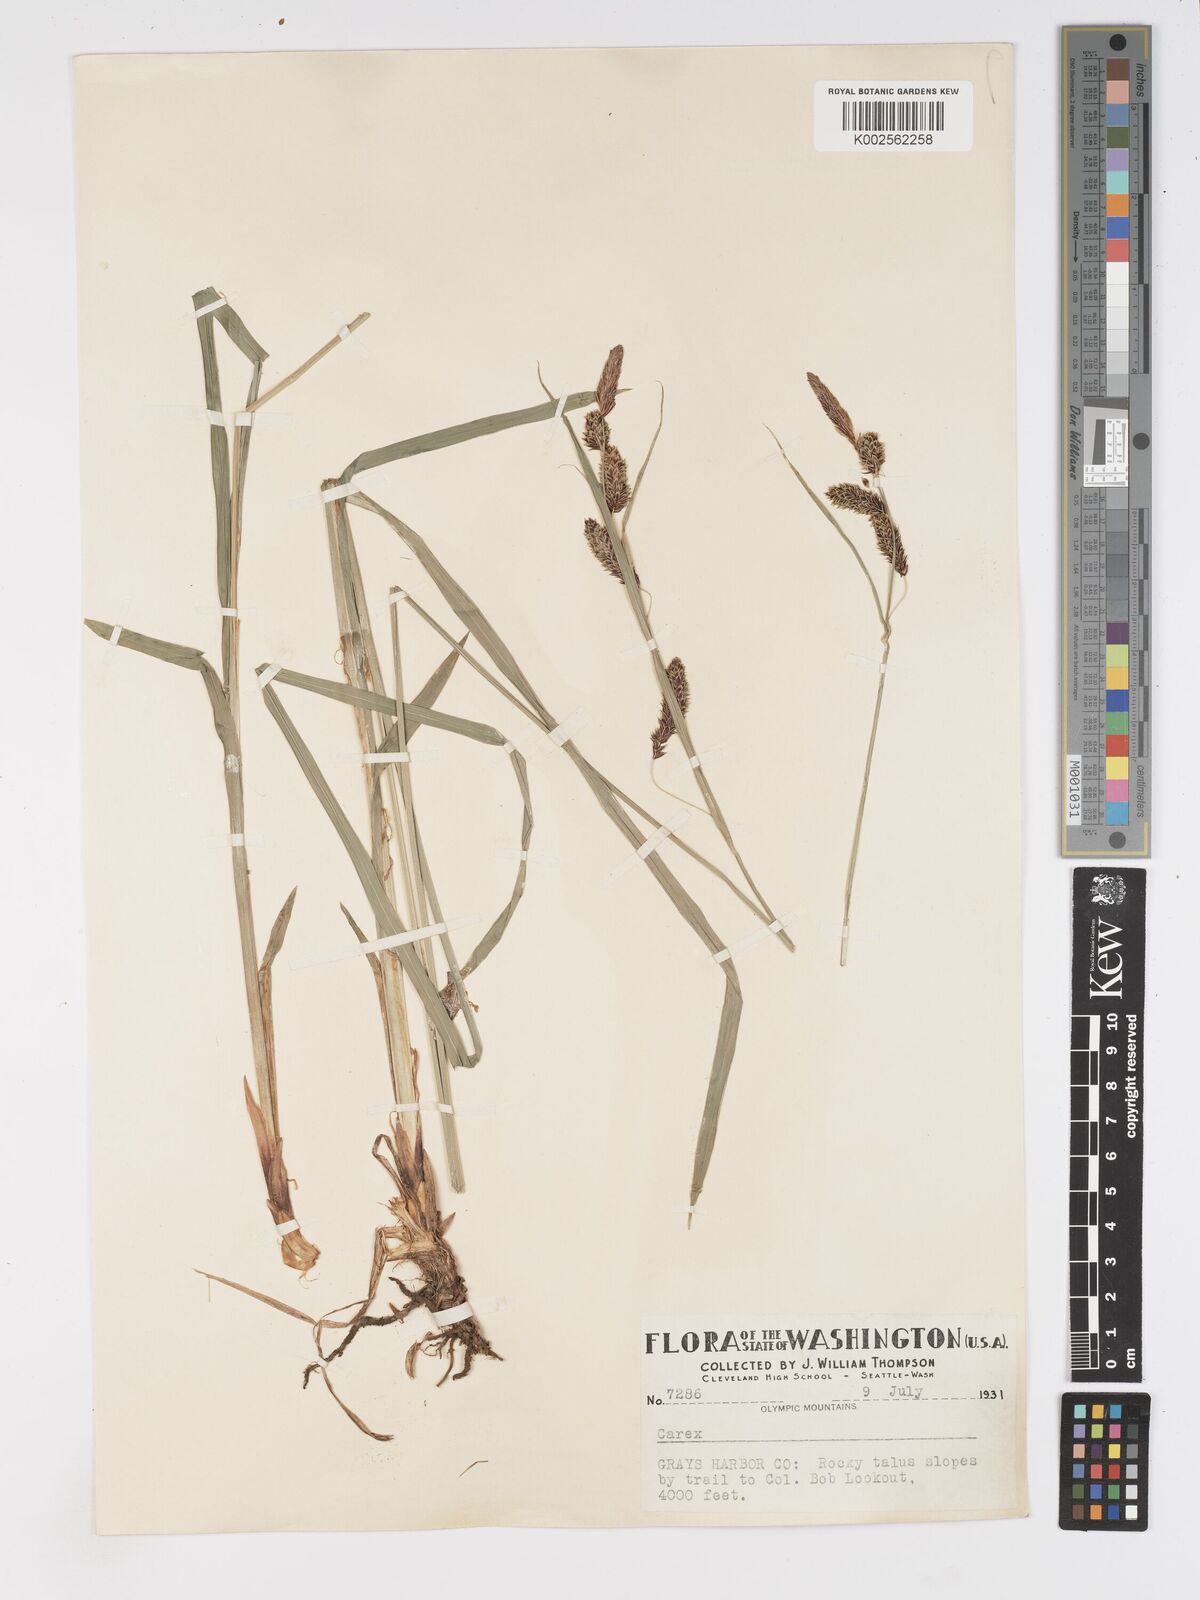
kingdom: Plantae
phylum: Tracheophyta
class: Liliopsida
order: Poales
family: Cyperaceae
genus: Carex
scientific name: Carex nebrascensis
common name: Nebraska sedge
